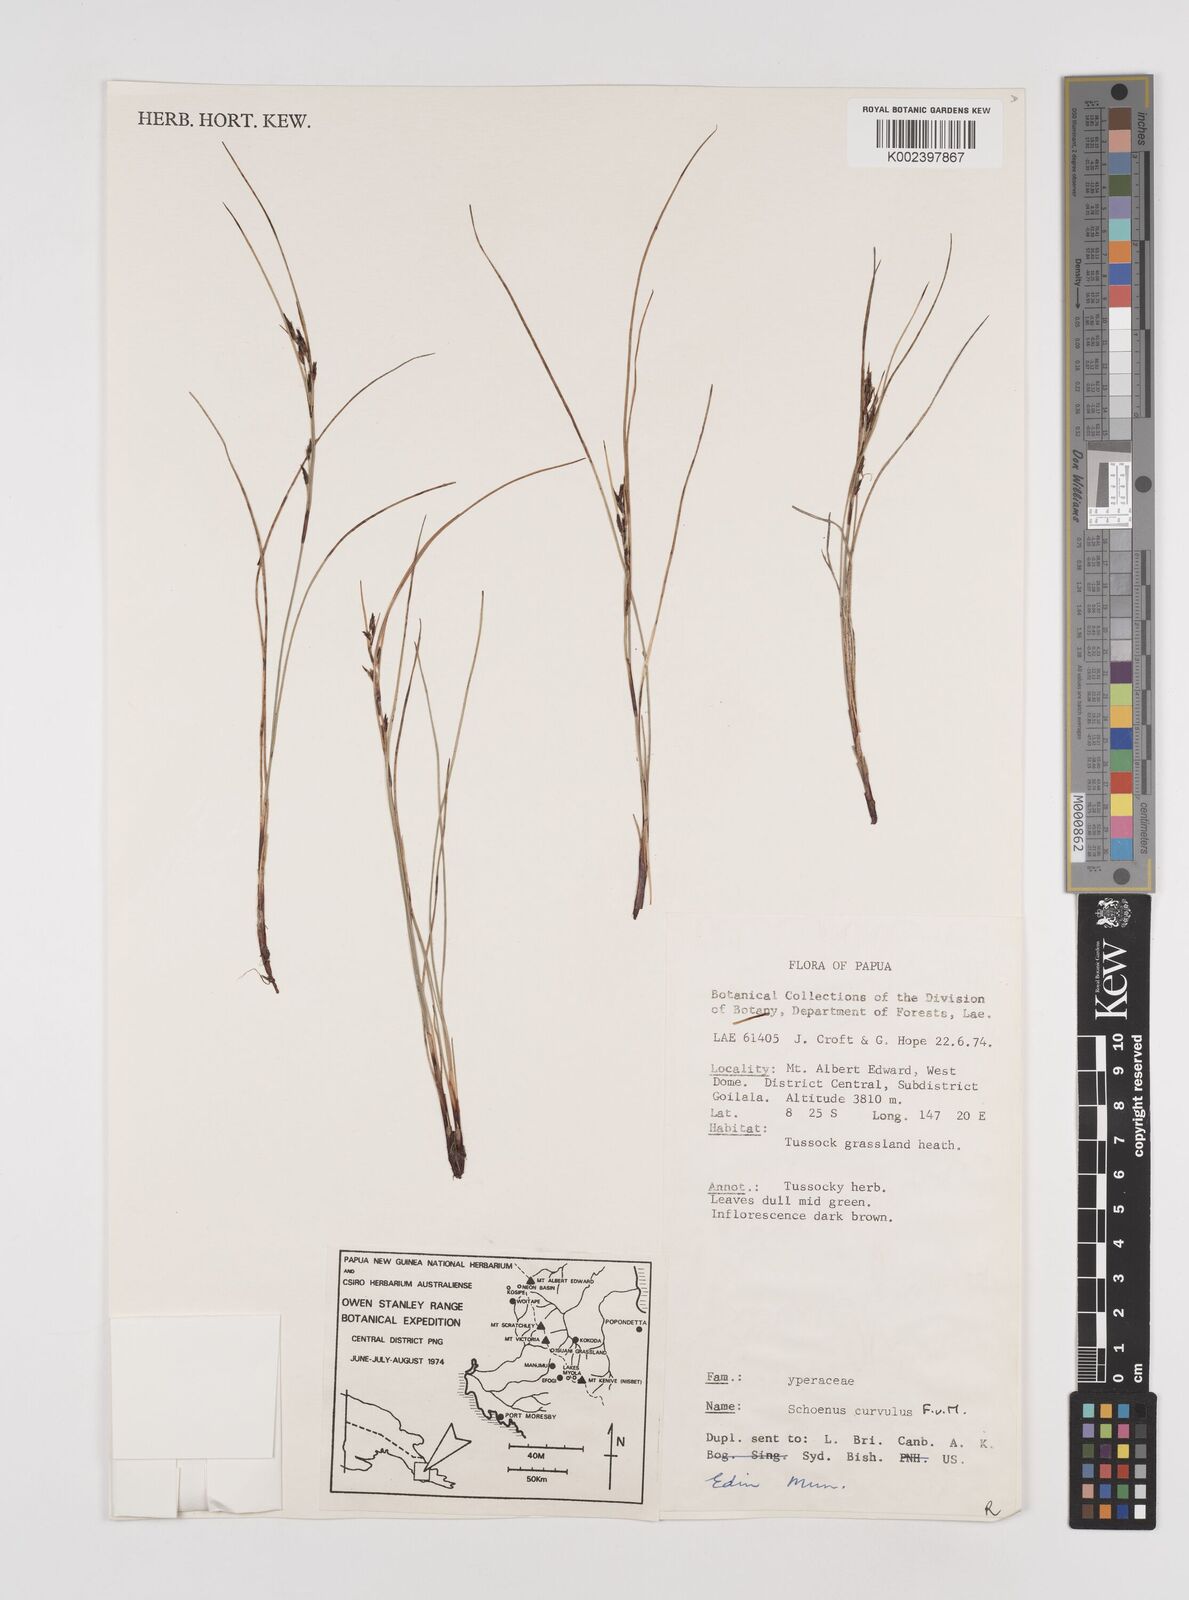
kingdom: Plantae
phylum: Tracheophyta
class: Liliopsida
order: Poales
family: Cyperaceae
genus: Schoenus
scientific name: Schoenus curvulus
